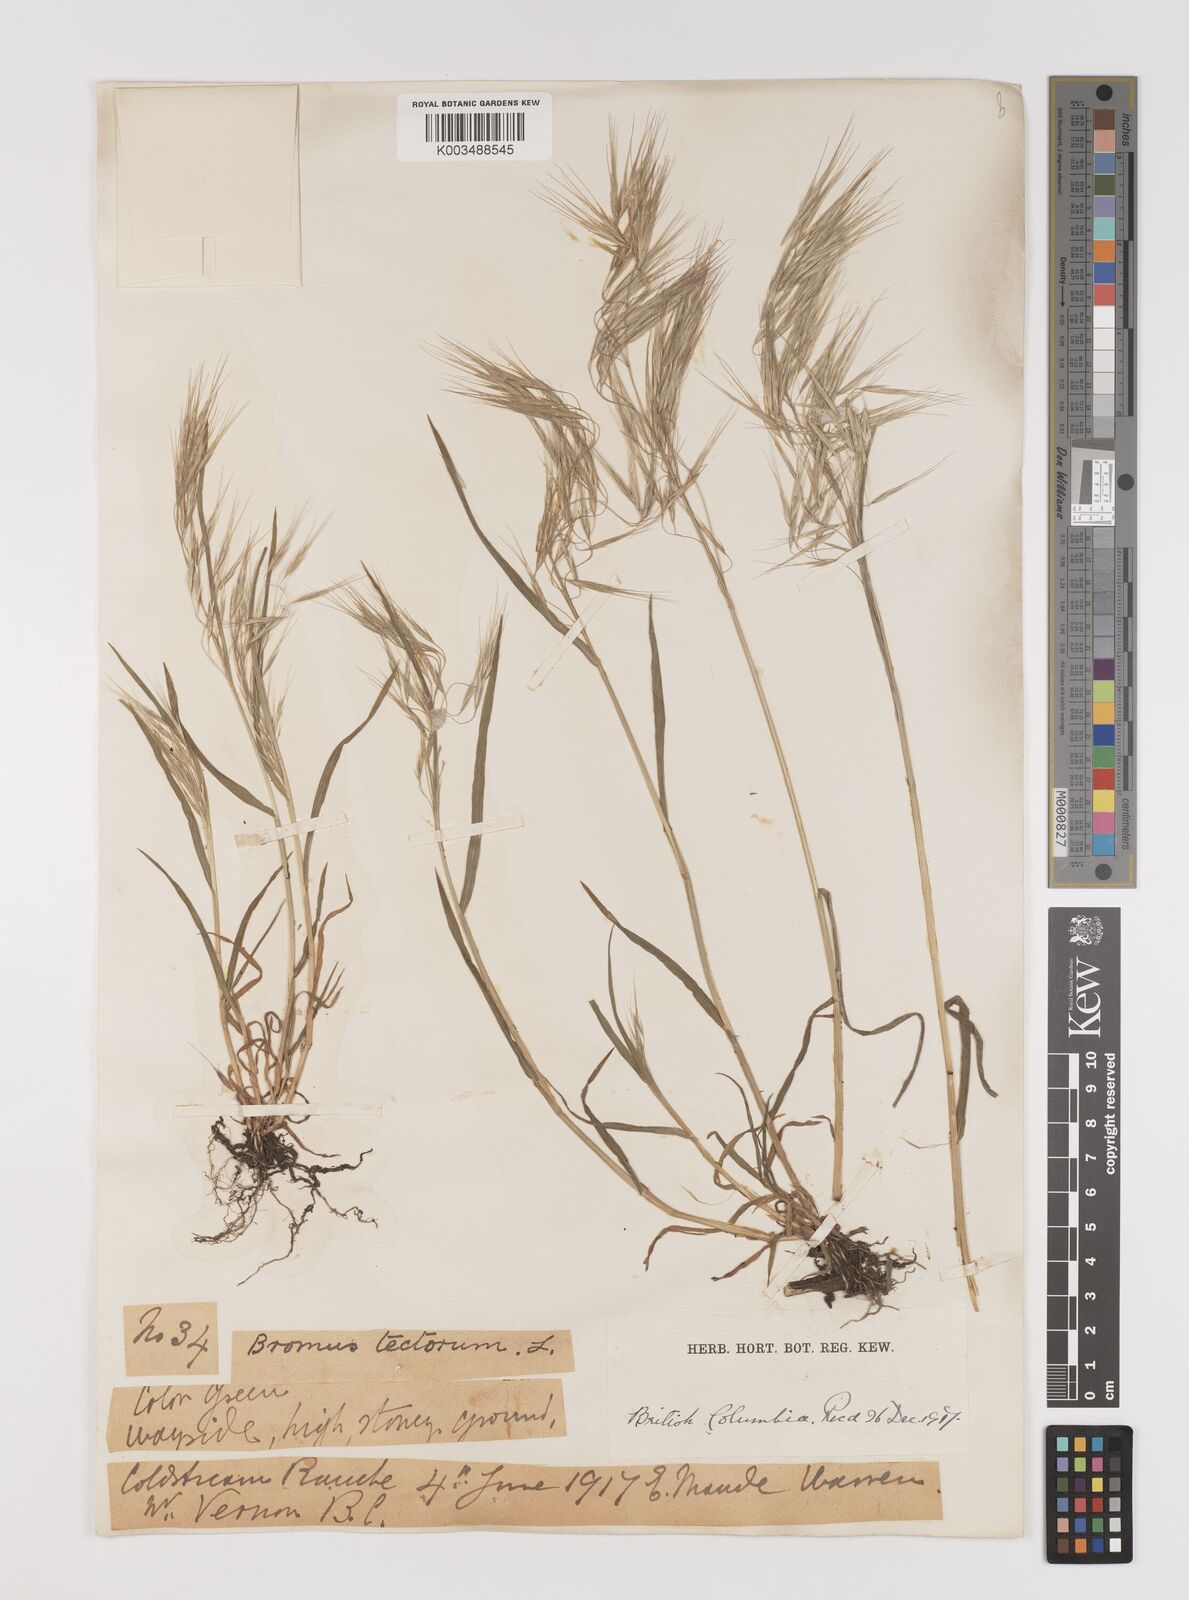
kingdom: Plantae
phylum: Tracheophyta
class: Liliopsida
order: Poales
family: Poaceae
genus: Bromus
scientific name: Bromus tectorum
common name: Cheatgrass
